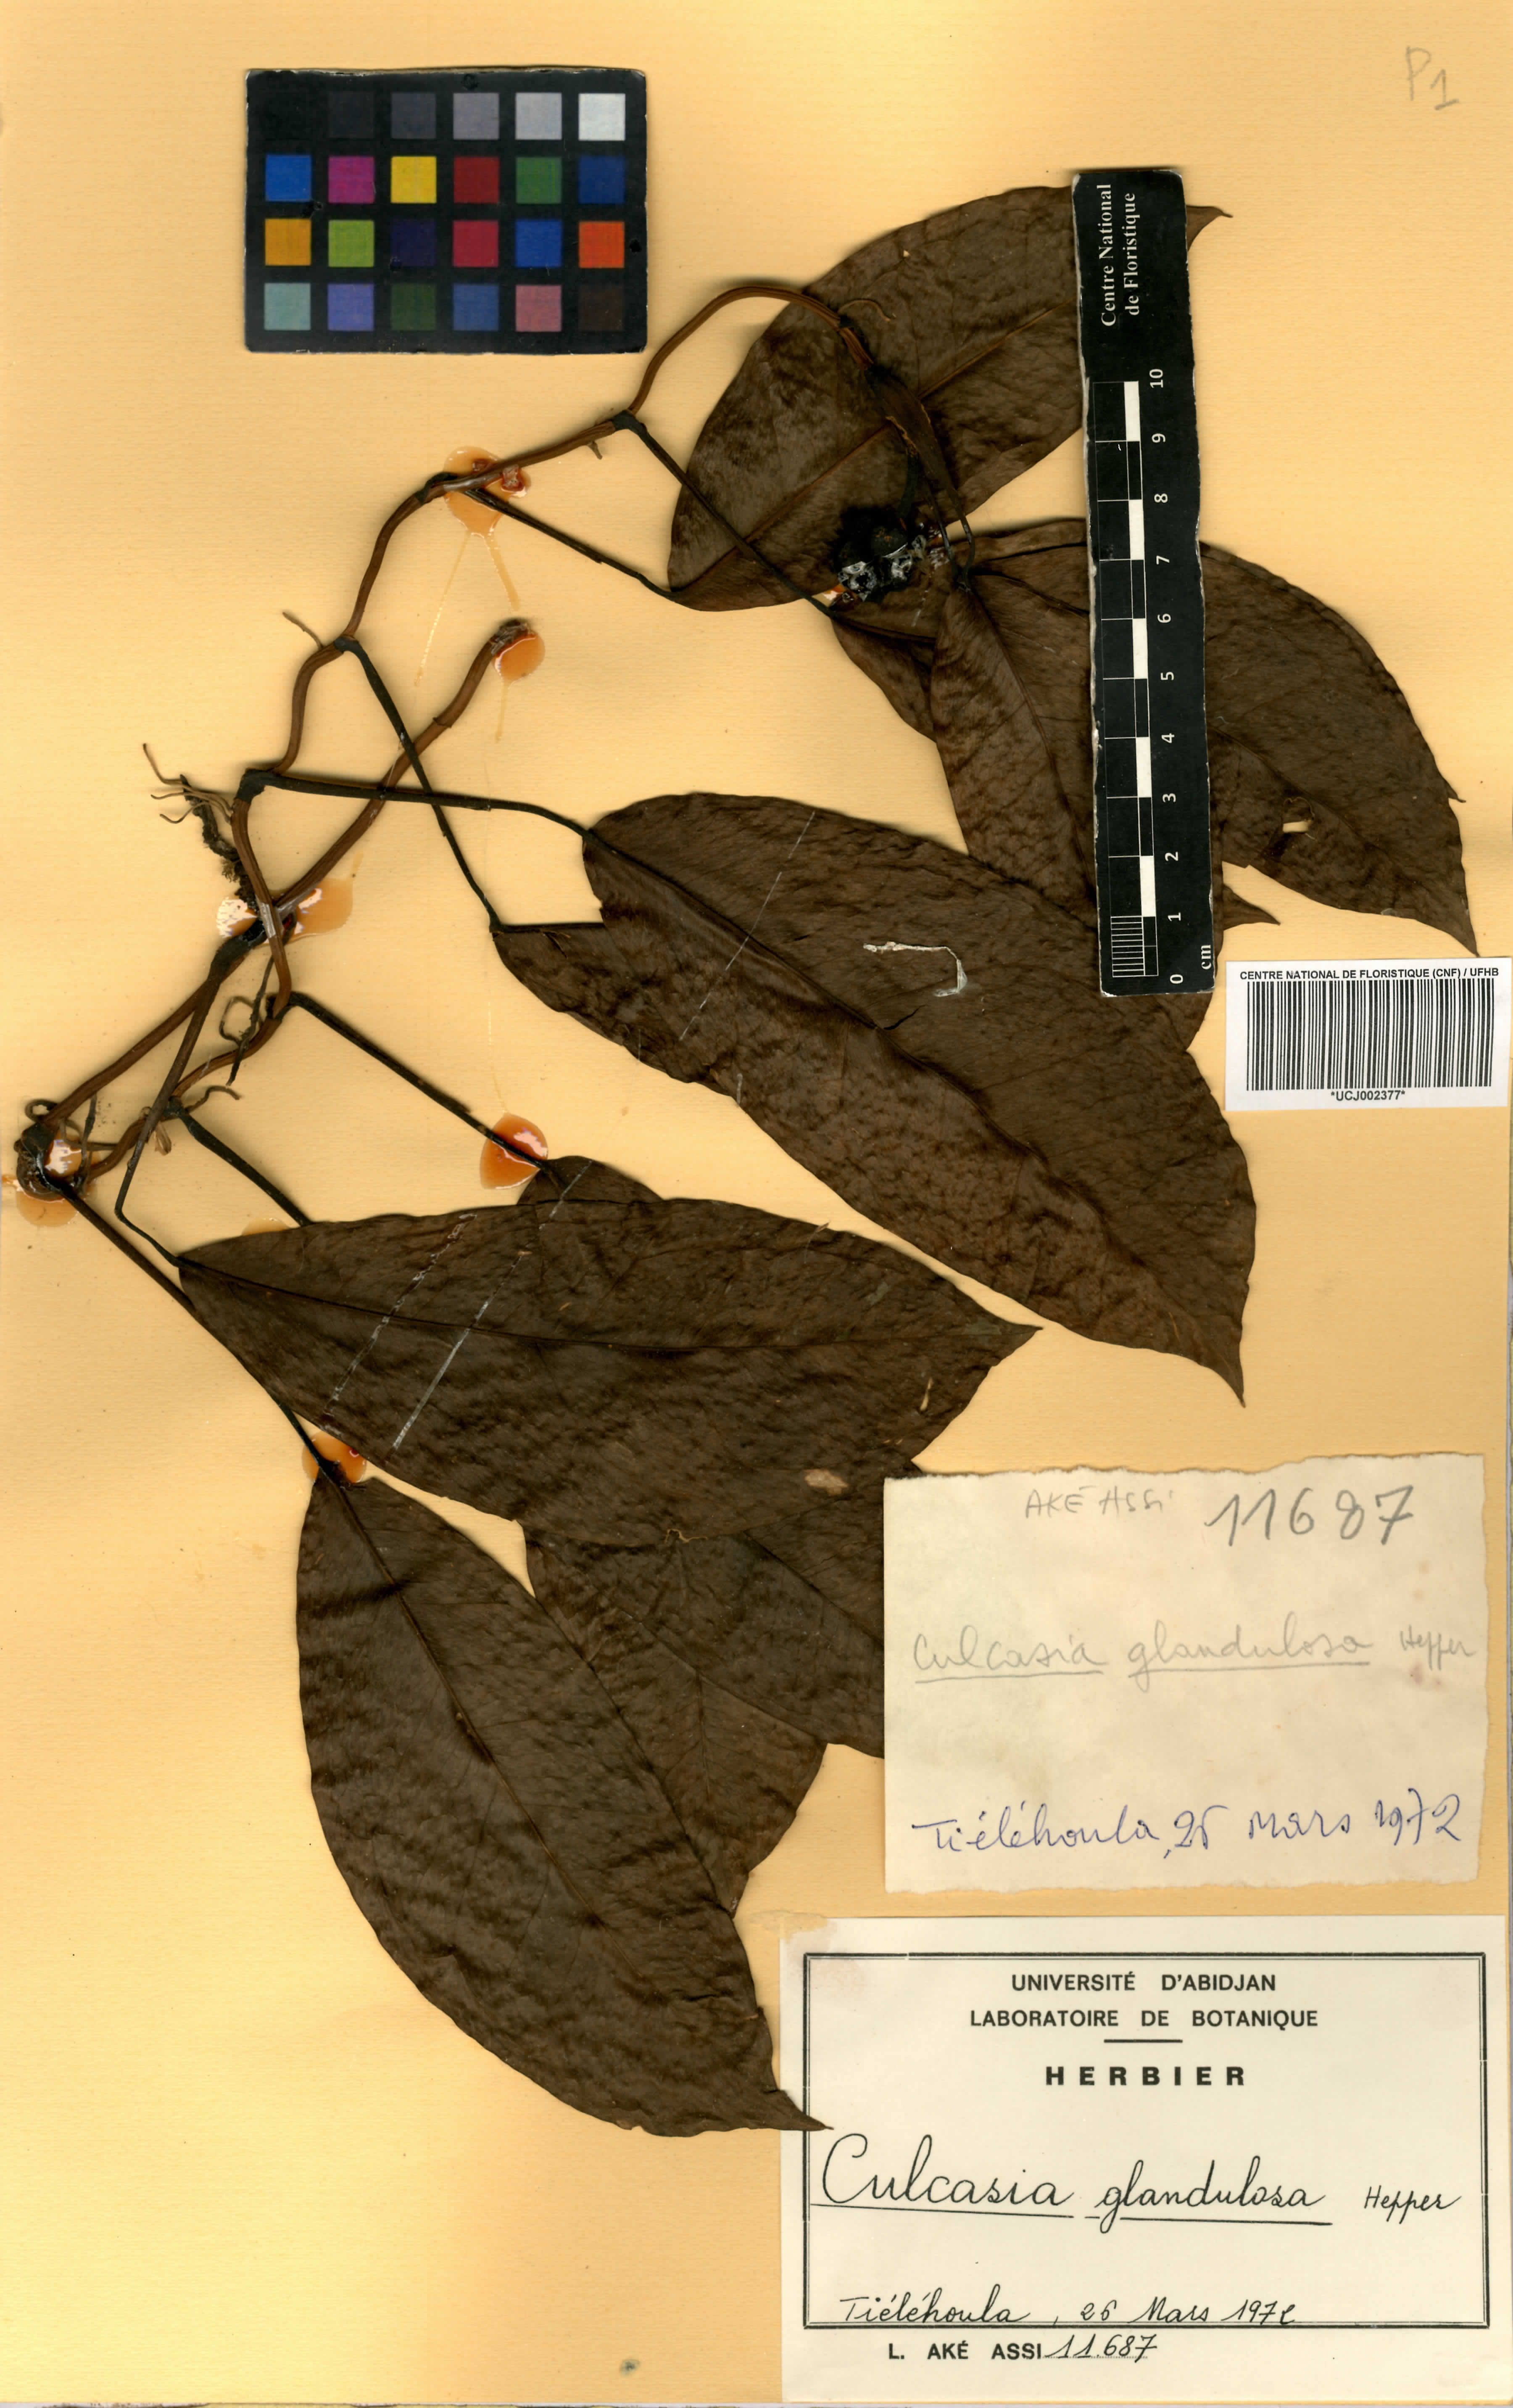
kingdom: Plantae
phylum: Tracheophyta
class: Liliopsida
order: Alismatales
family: Araceae
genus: Culcasia
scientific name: Culcasia glandulosa
